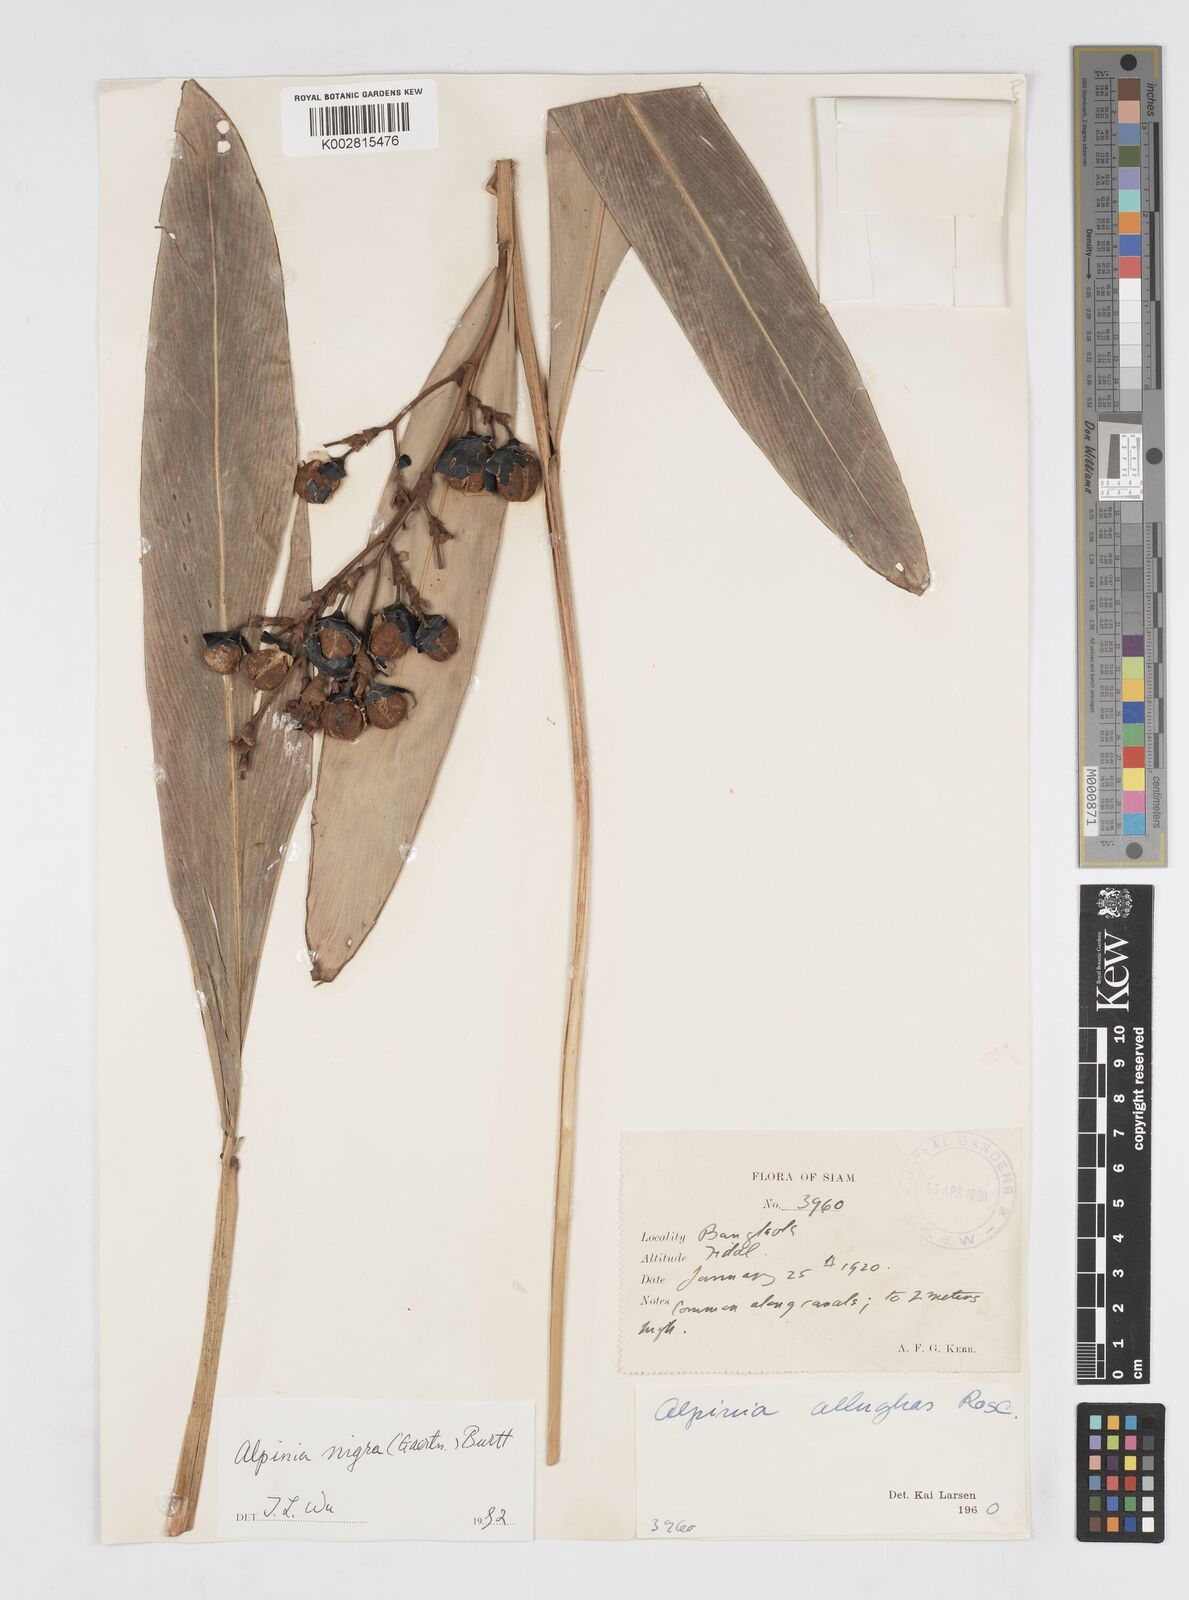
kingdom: Plantae
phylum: Tracheophyta
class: Liliopsida
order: Zingiberales
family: Zingiberaceae
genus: Alpinia
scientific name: Alpinia nigra
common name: Black fruited galanga
